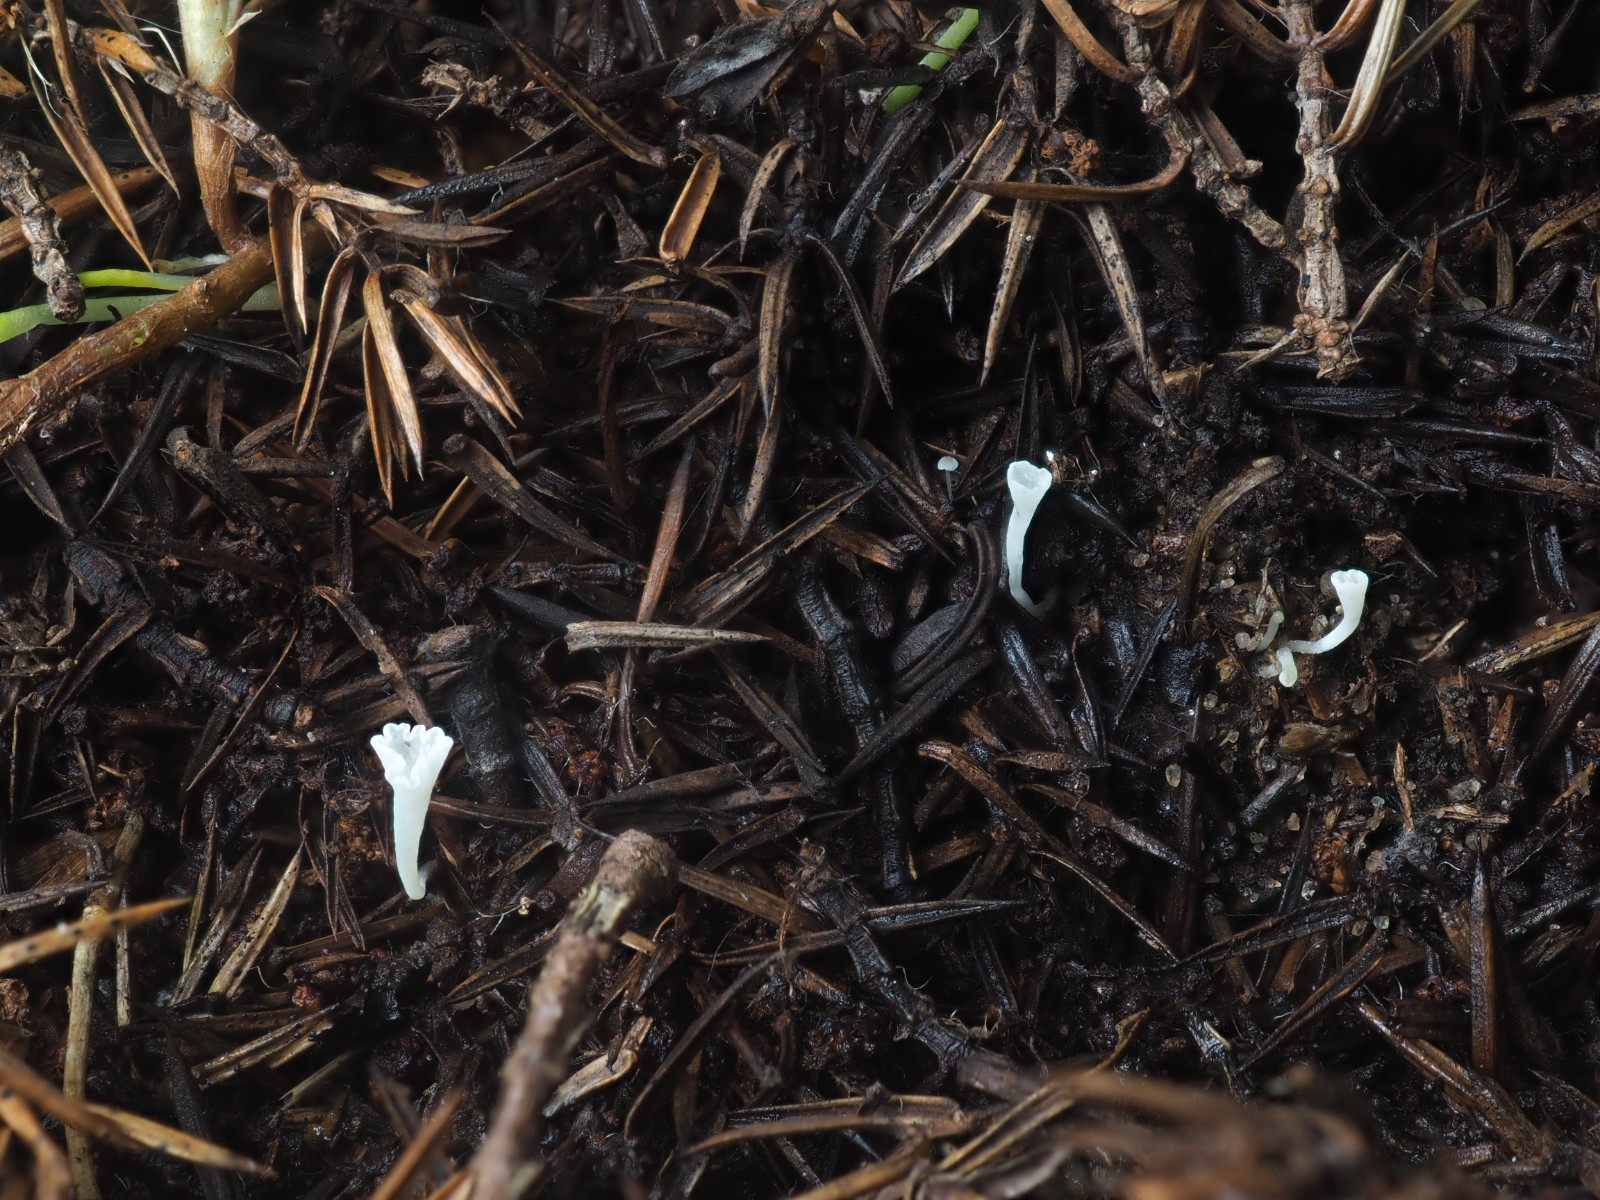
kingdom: Fungi
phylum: Basidiomycota
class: Agaricomycetes
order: Agaricales
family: Clavariaceae
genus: Clavicorona
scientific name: Clavicorona taxophila
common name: trompetkølle
